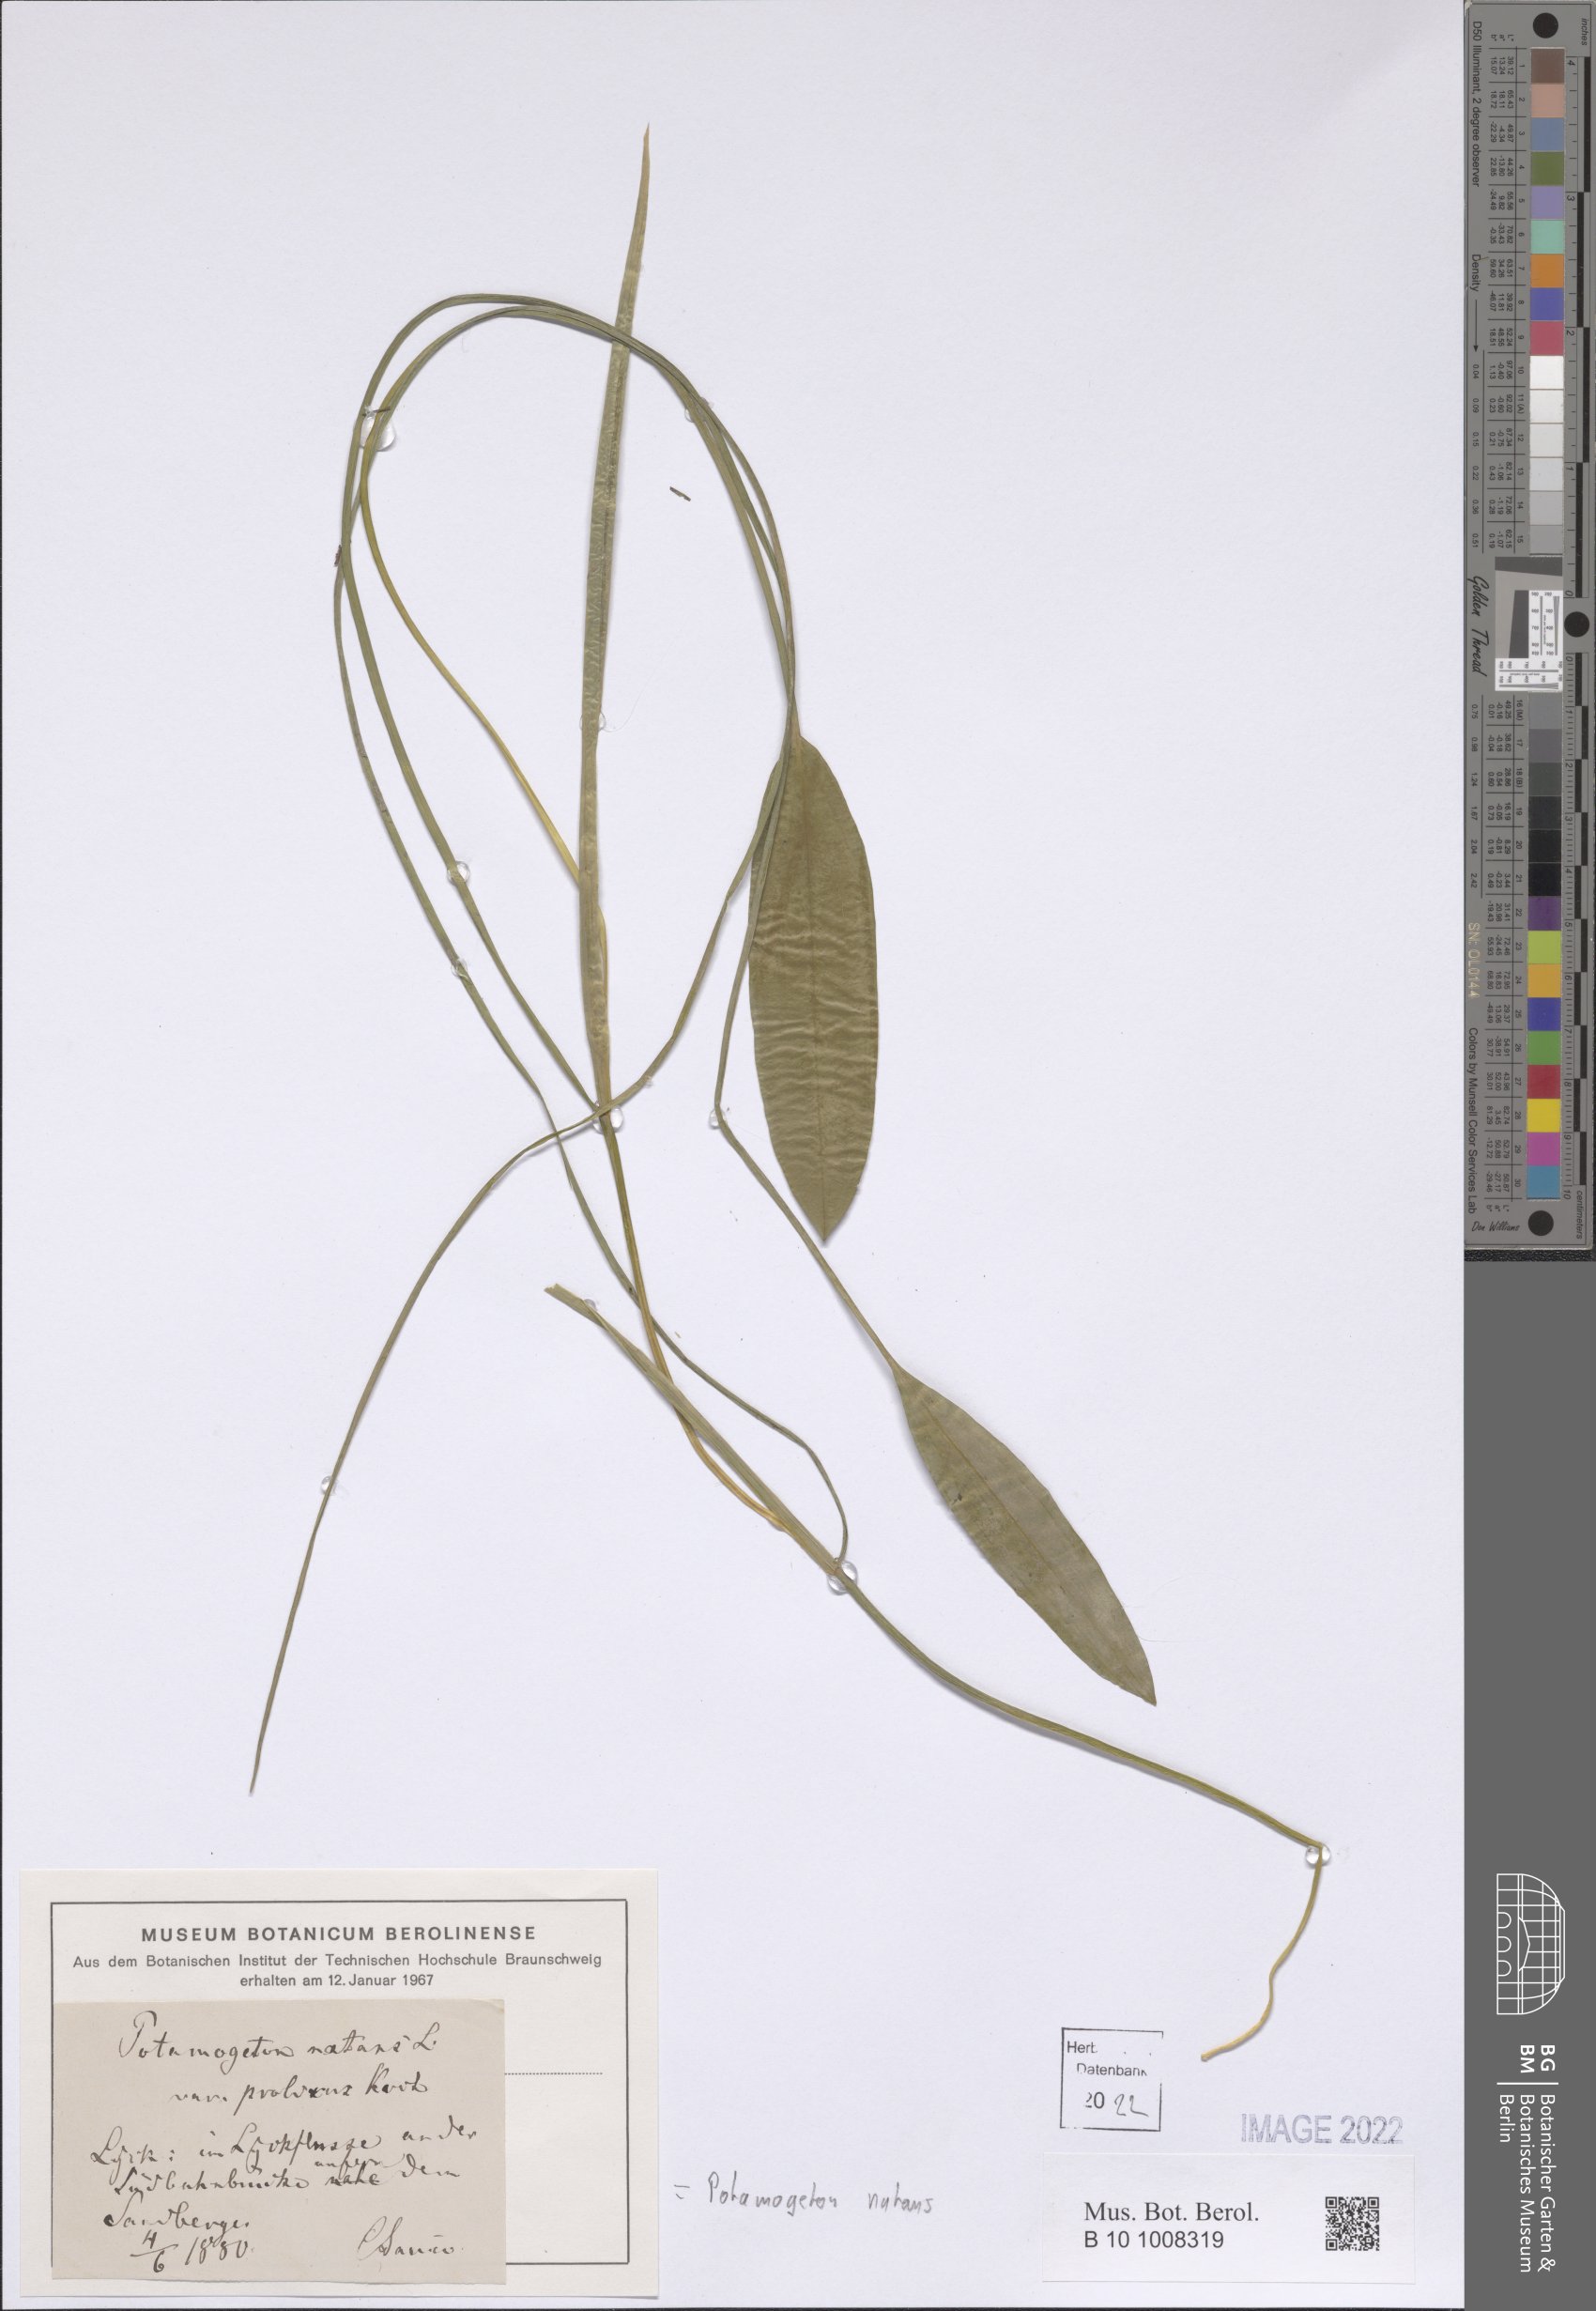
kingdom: Plantae
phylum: Tracheophyta
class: Liliopsida
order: Alismatales
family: Potamogetonaceae
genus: Potamogeton
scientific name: Potamogeton natans
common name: Broad-leaved pondweed
